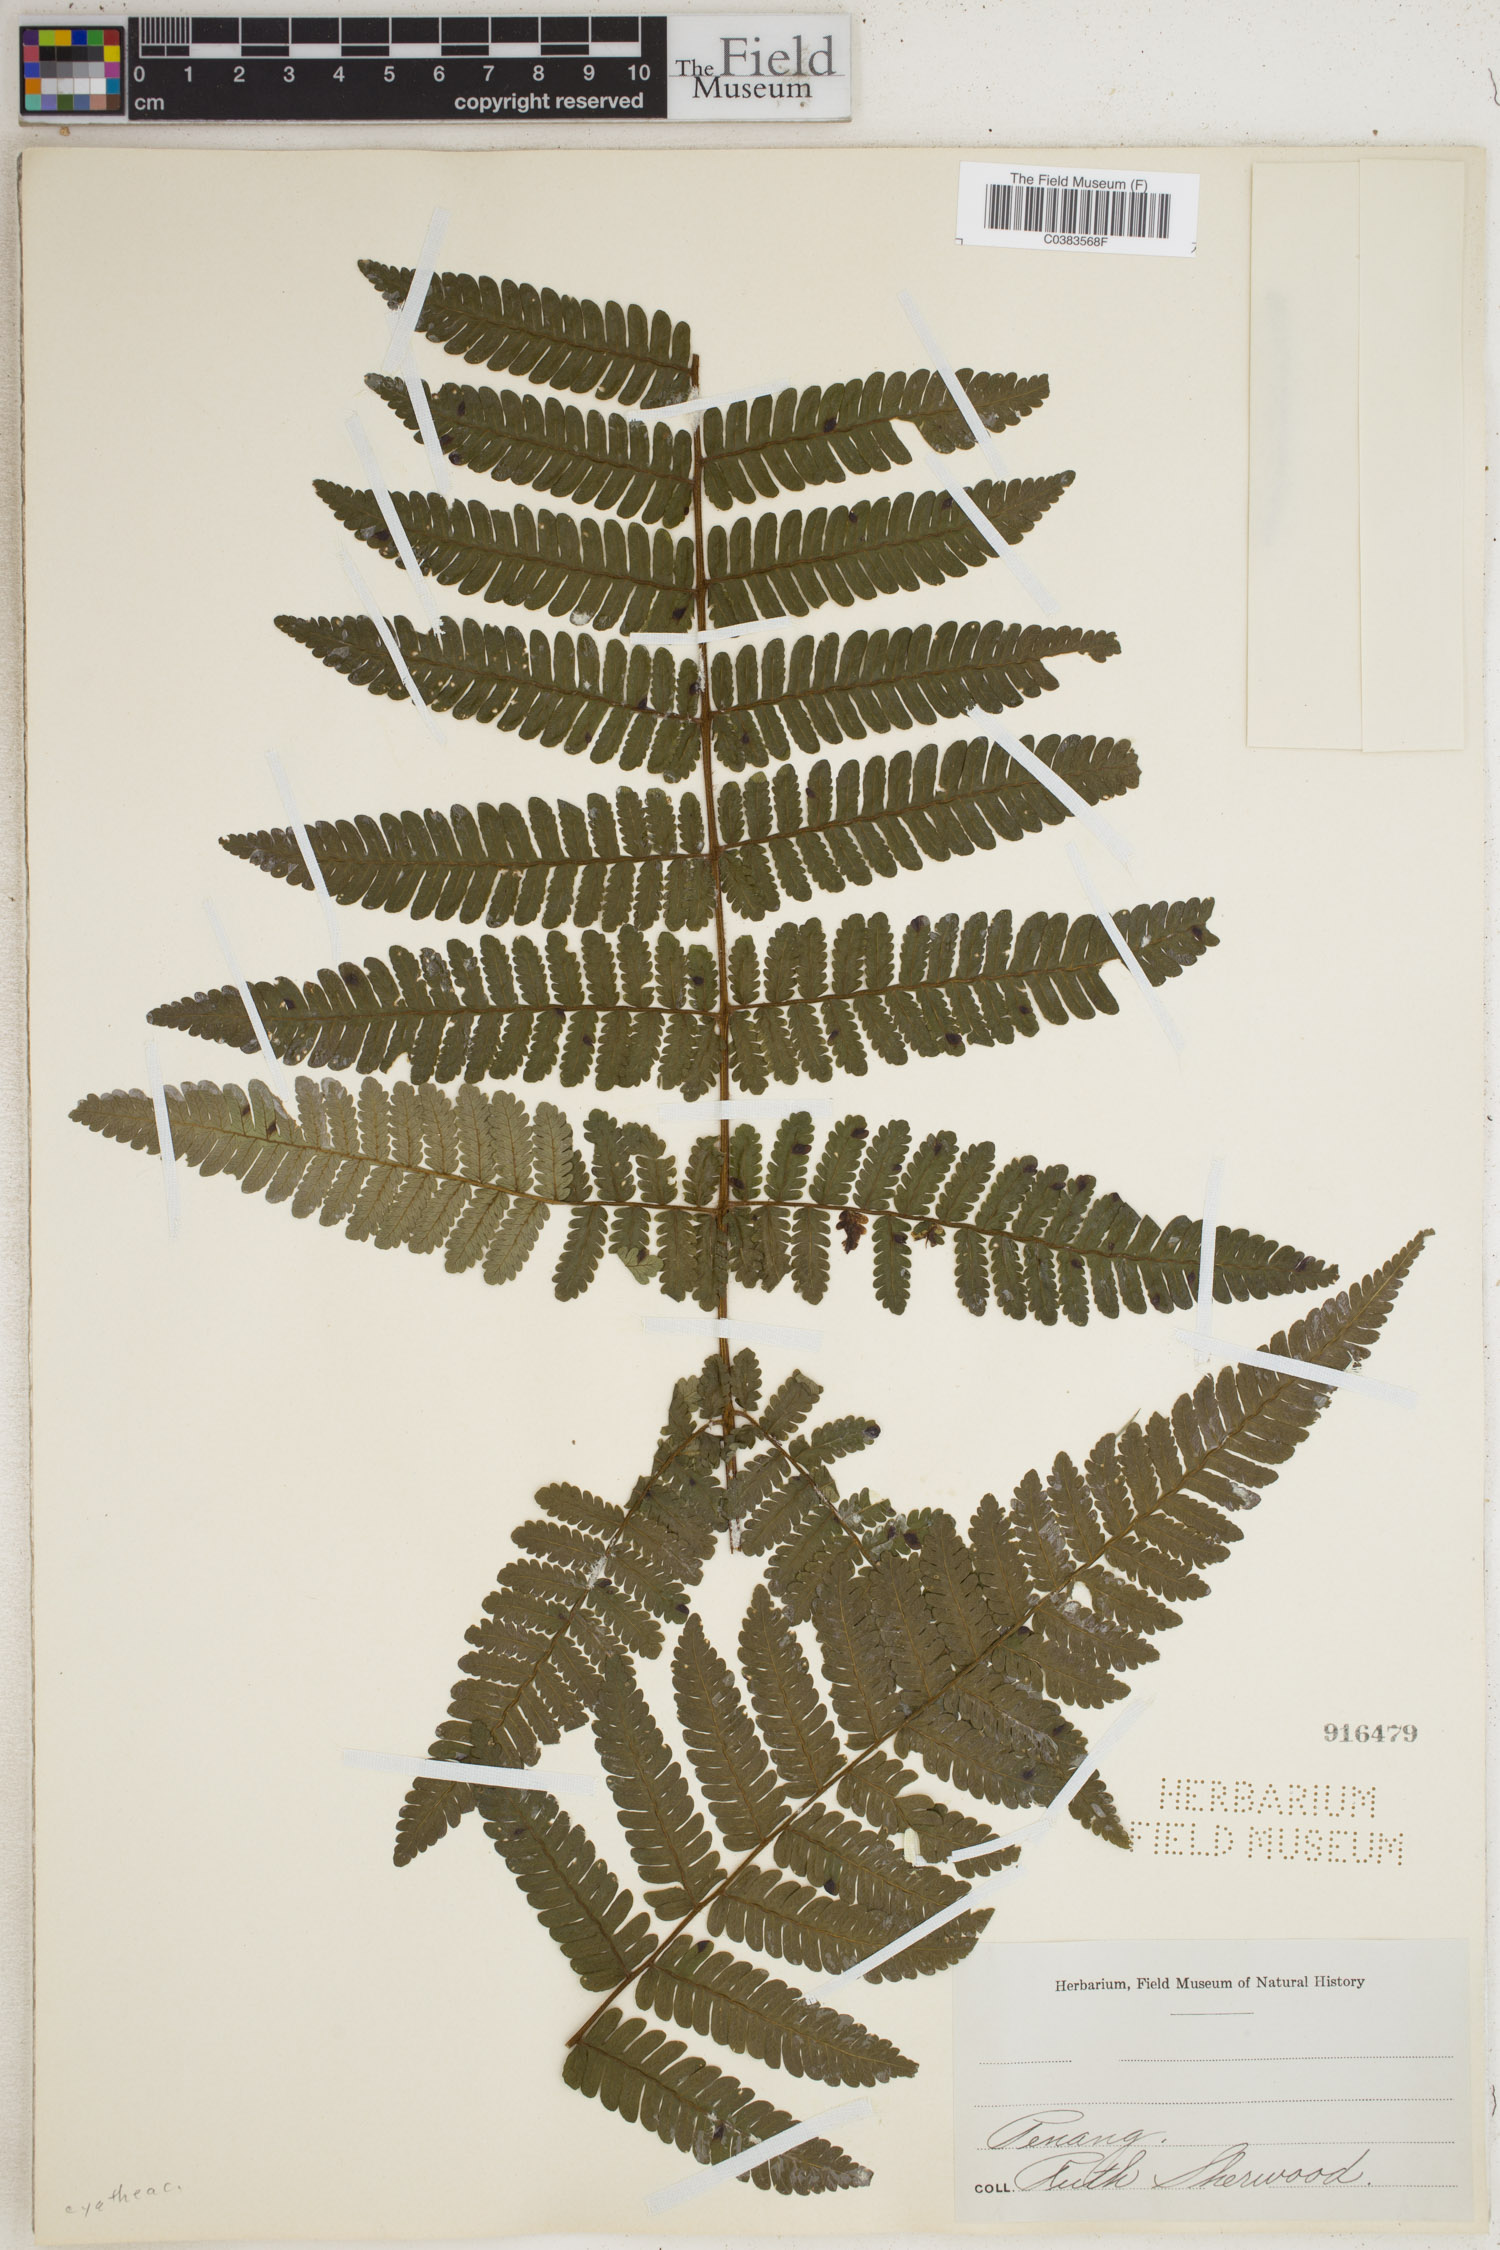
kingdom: Plantae
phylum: Tracheophyta
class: Polypodiopsida
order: Cyatheales
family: Cyatheaceae
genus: Cyathea
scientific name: Cyathea
